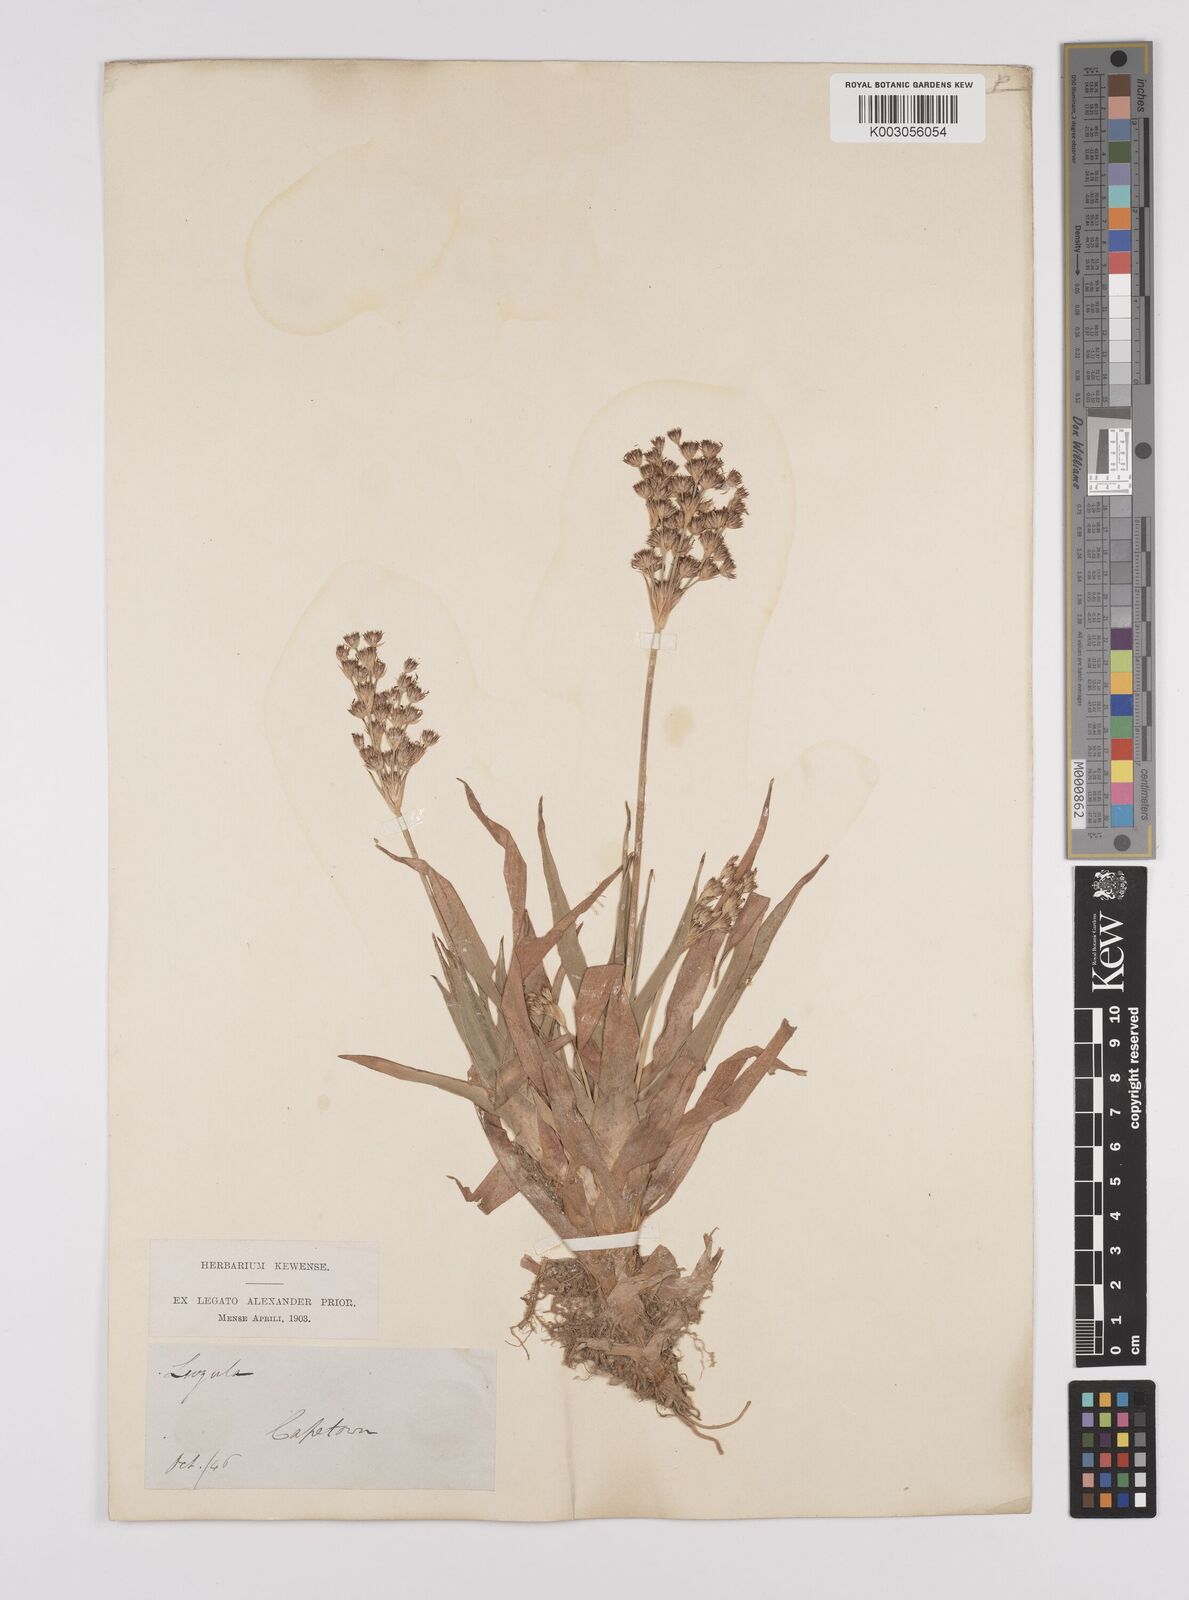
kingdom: Plantae
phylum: Tracheophyta
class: Liliopsida
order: Poales
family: Juncaceae
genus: Juncus
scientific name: Juncus lomatophyllus
